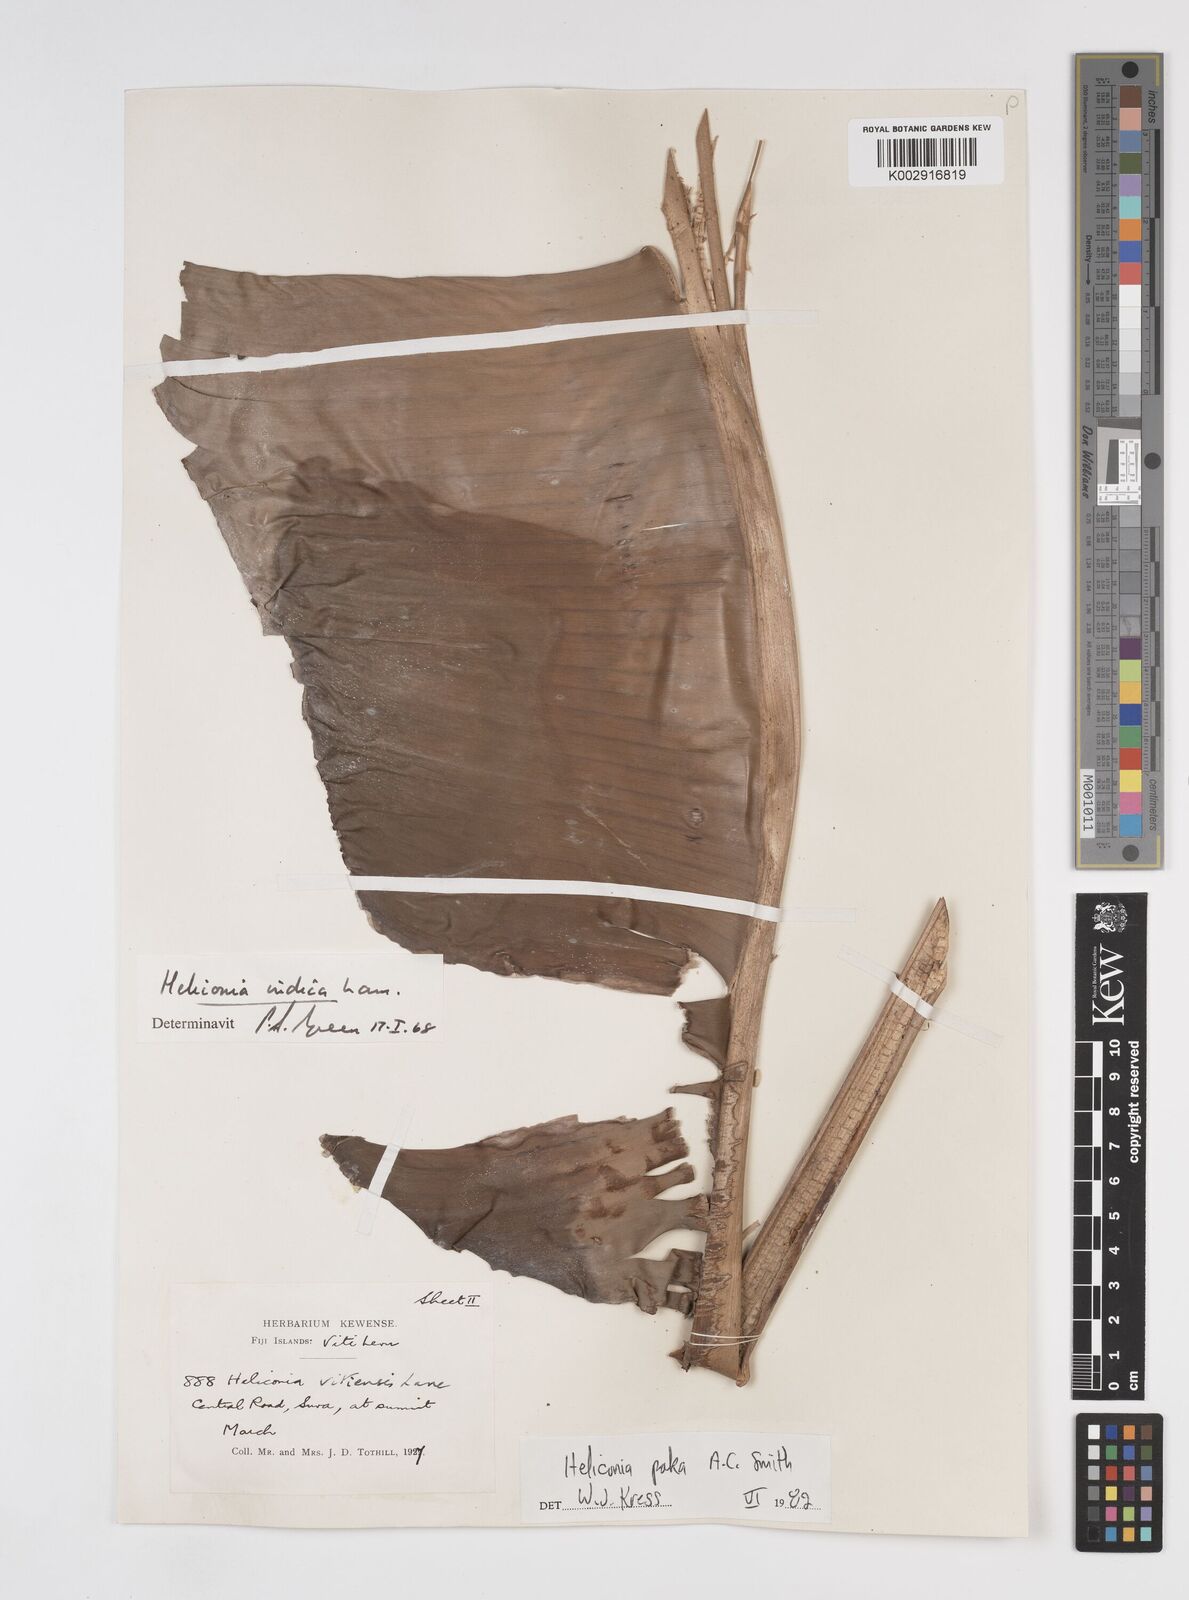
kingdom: Plantae
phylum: Tracheophyta
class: Liliopsida
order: Zingiberales
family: Heliconiaceae
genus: Heliconia
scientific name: Heliconia paka
